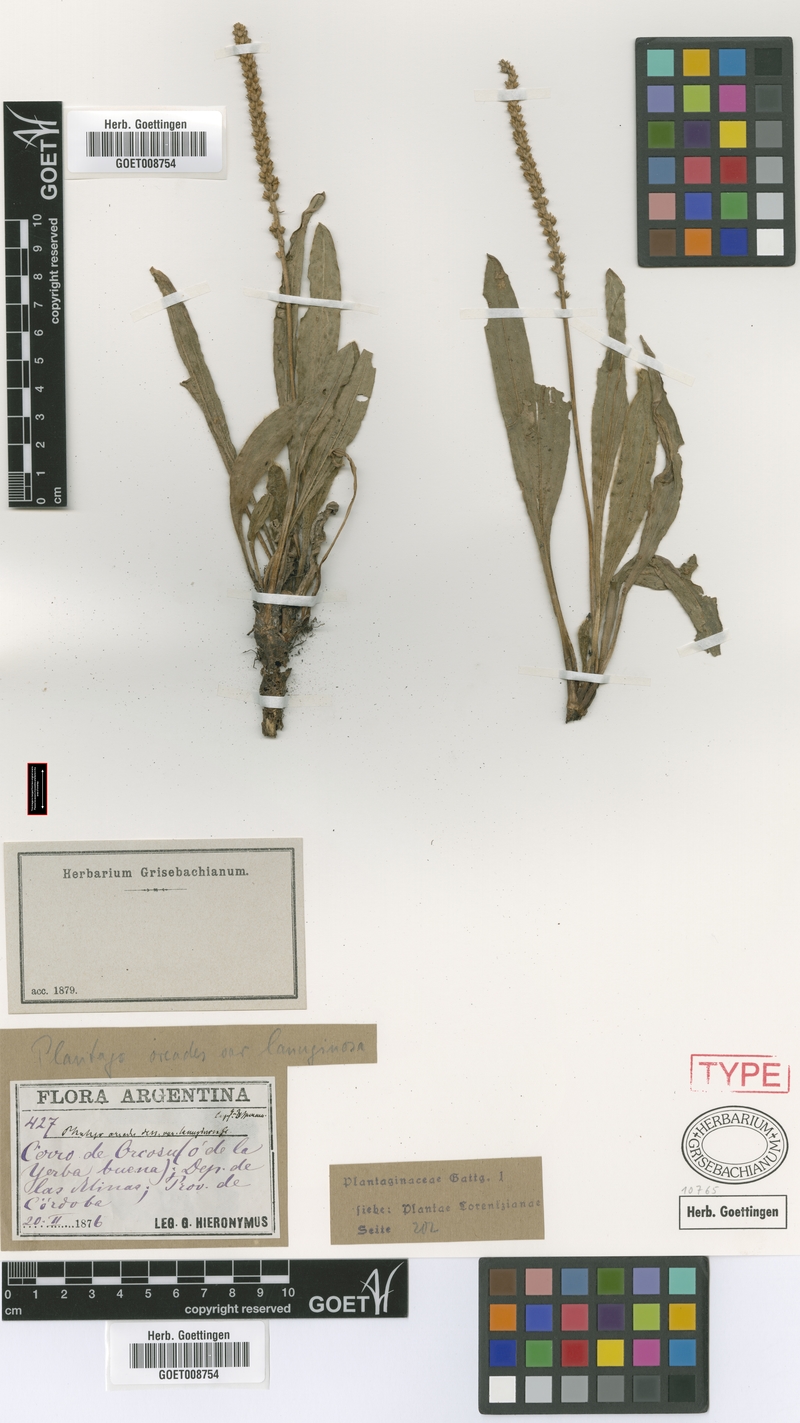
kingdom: Plantae
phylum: Tracheophyta
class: Magnoliopsida
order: Lamiales
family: Plantaginaceae
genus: Plantago
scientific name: Plantago tomentosa
